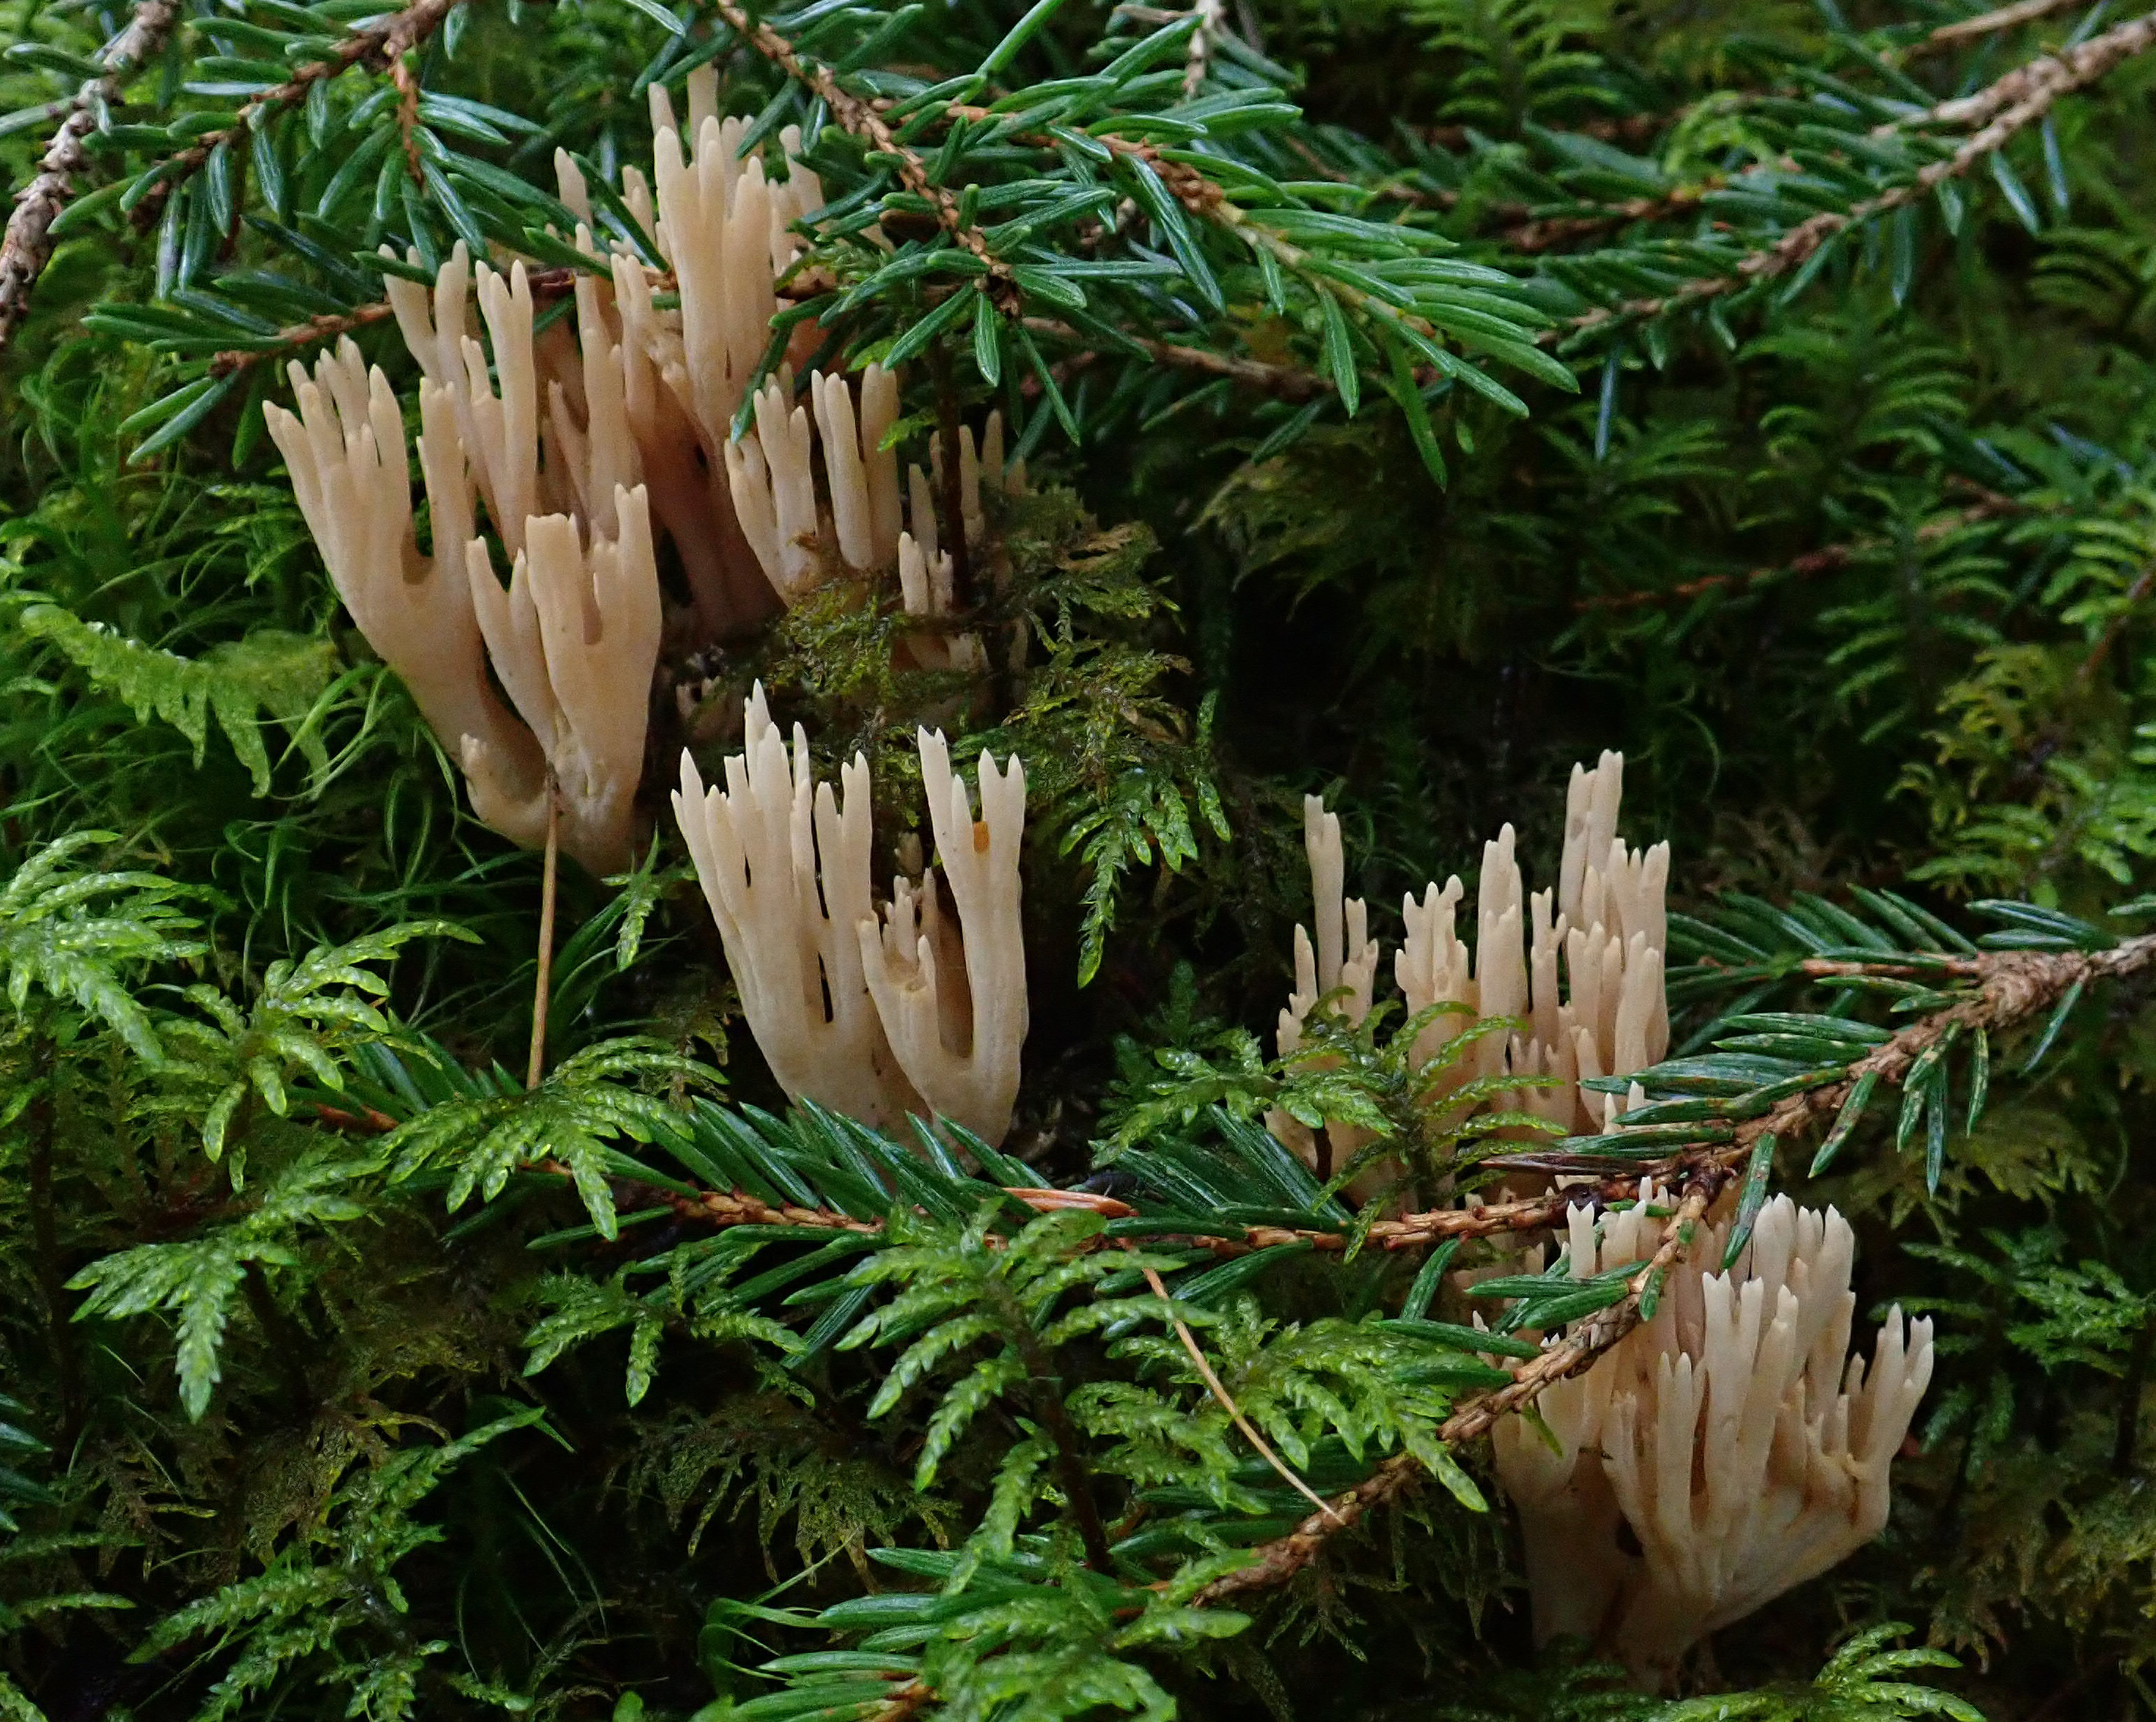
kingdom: Fungi
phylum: Basidiomycota
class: Agaricomycetes
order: Gomphales
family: Gomphaceae
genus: Ramaria
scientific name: Ramaria suecica
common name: Parading coral
